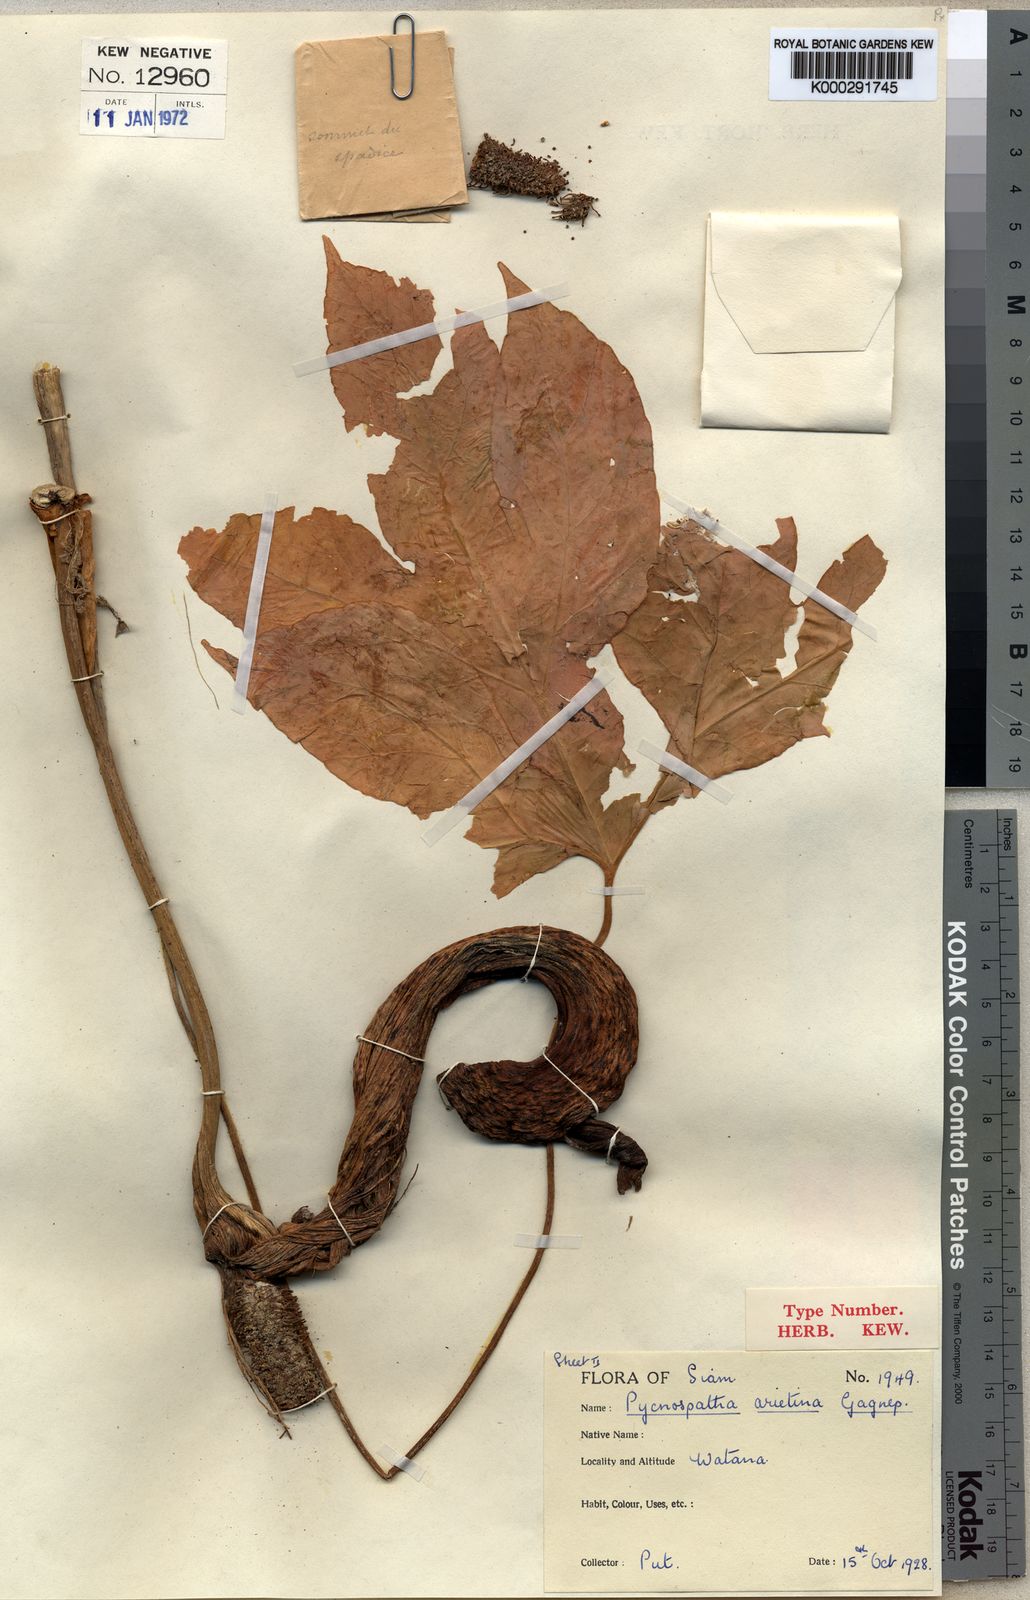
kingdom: Plantae
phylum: Tracheophyta
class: Liliopsida
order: Alismatales
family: Araceae
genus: Pycnospatha
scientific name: Pycnospatha arietina
